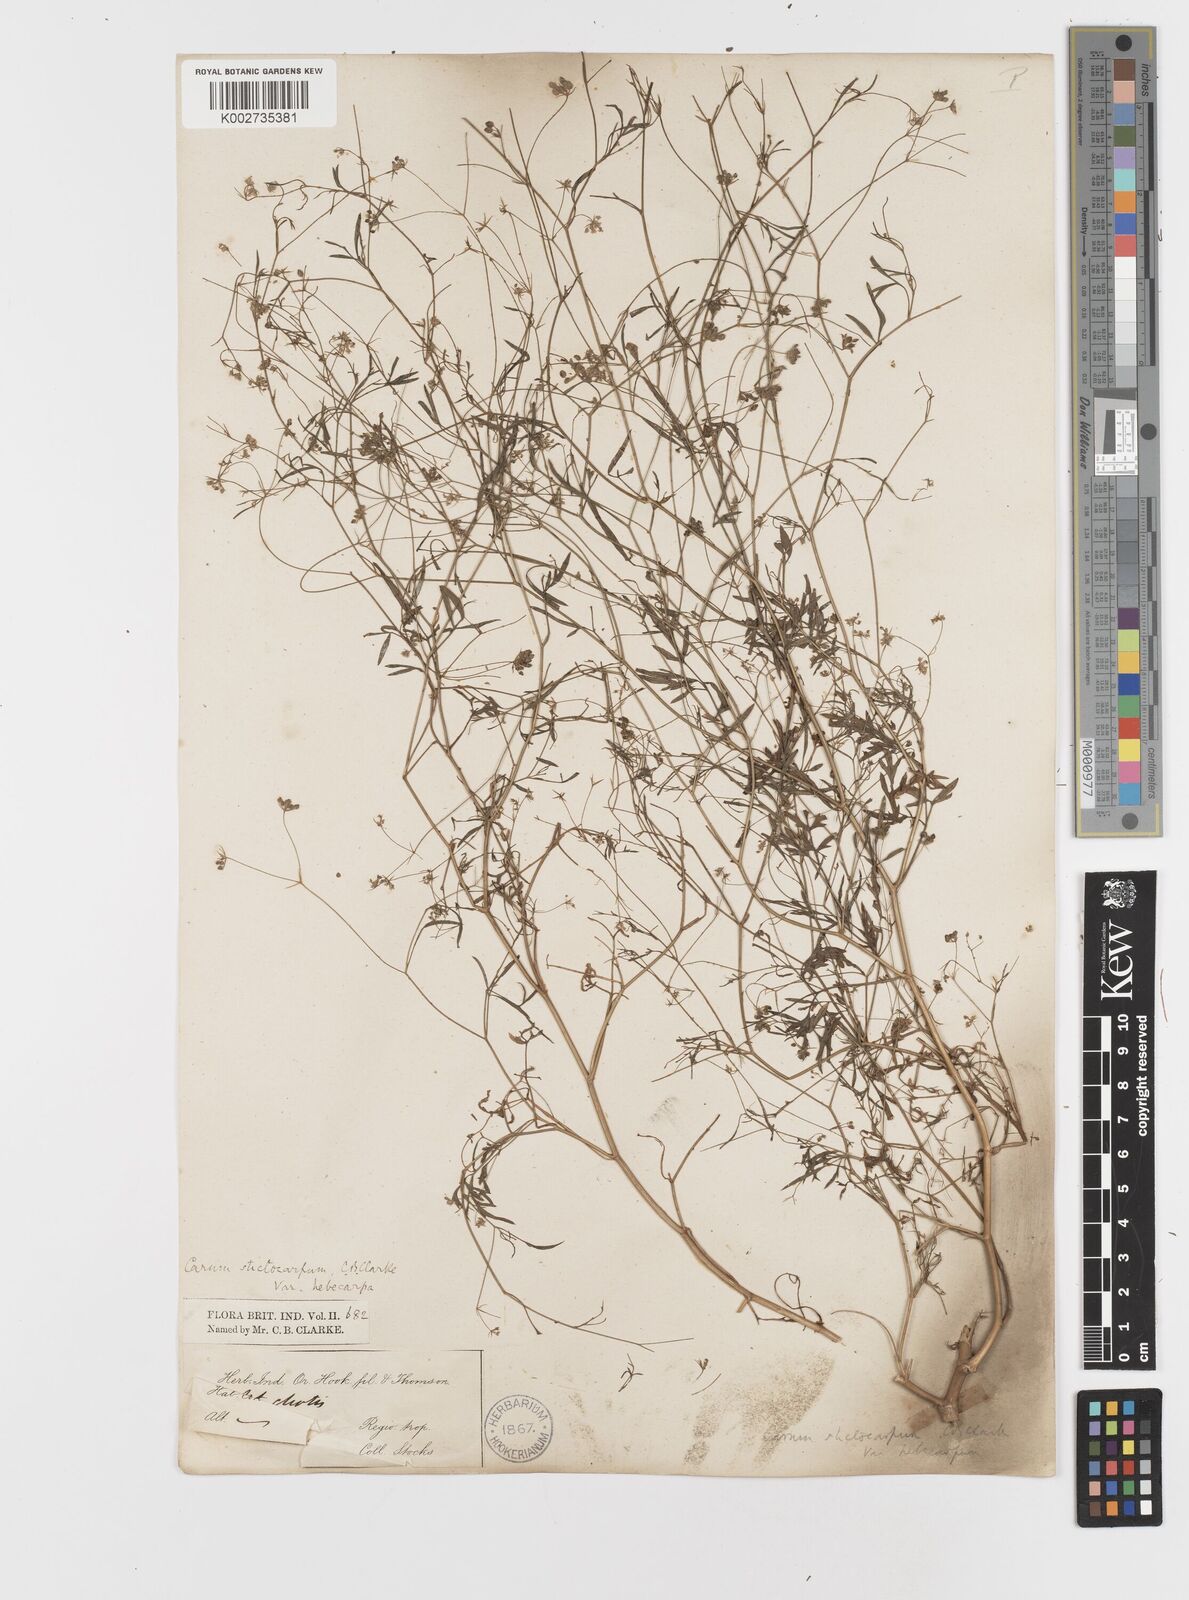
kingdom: Plantae
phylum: Tracheophyta
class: Magnoliopsida
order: Apiales
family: Apiaceae
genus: Psammogeton
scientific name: Psammogeton involucratum
